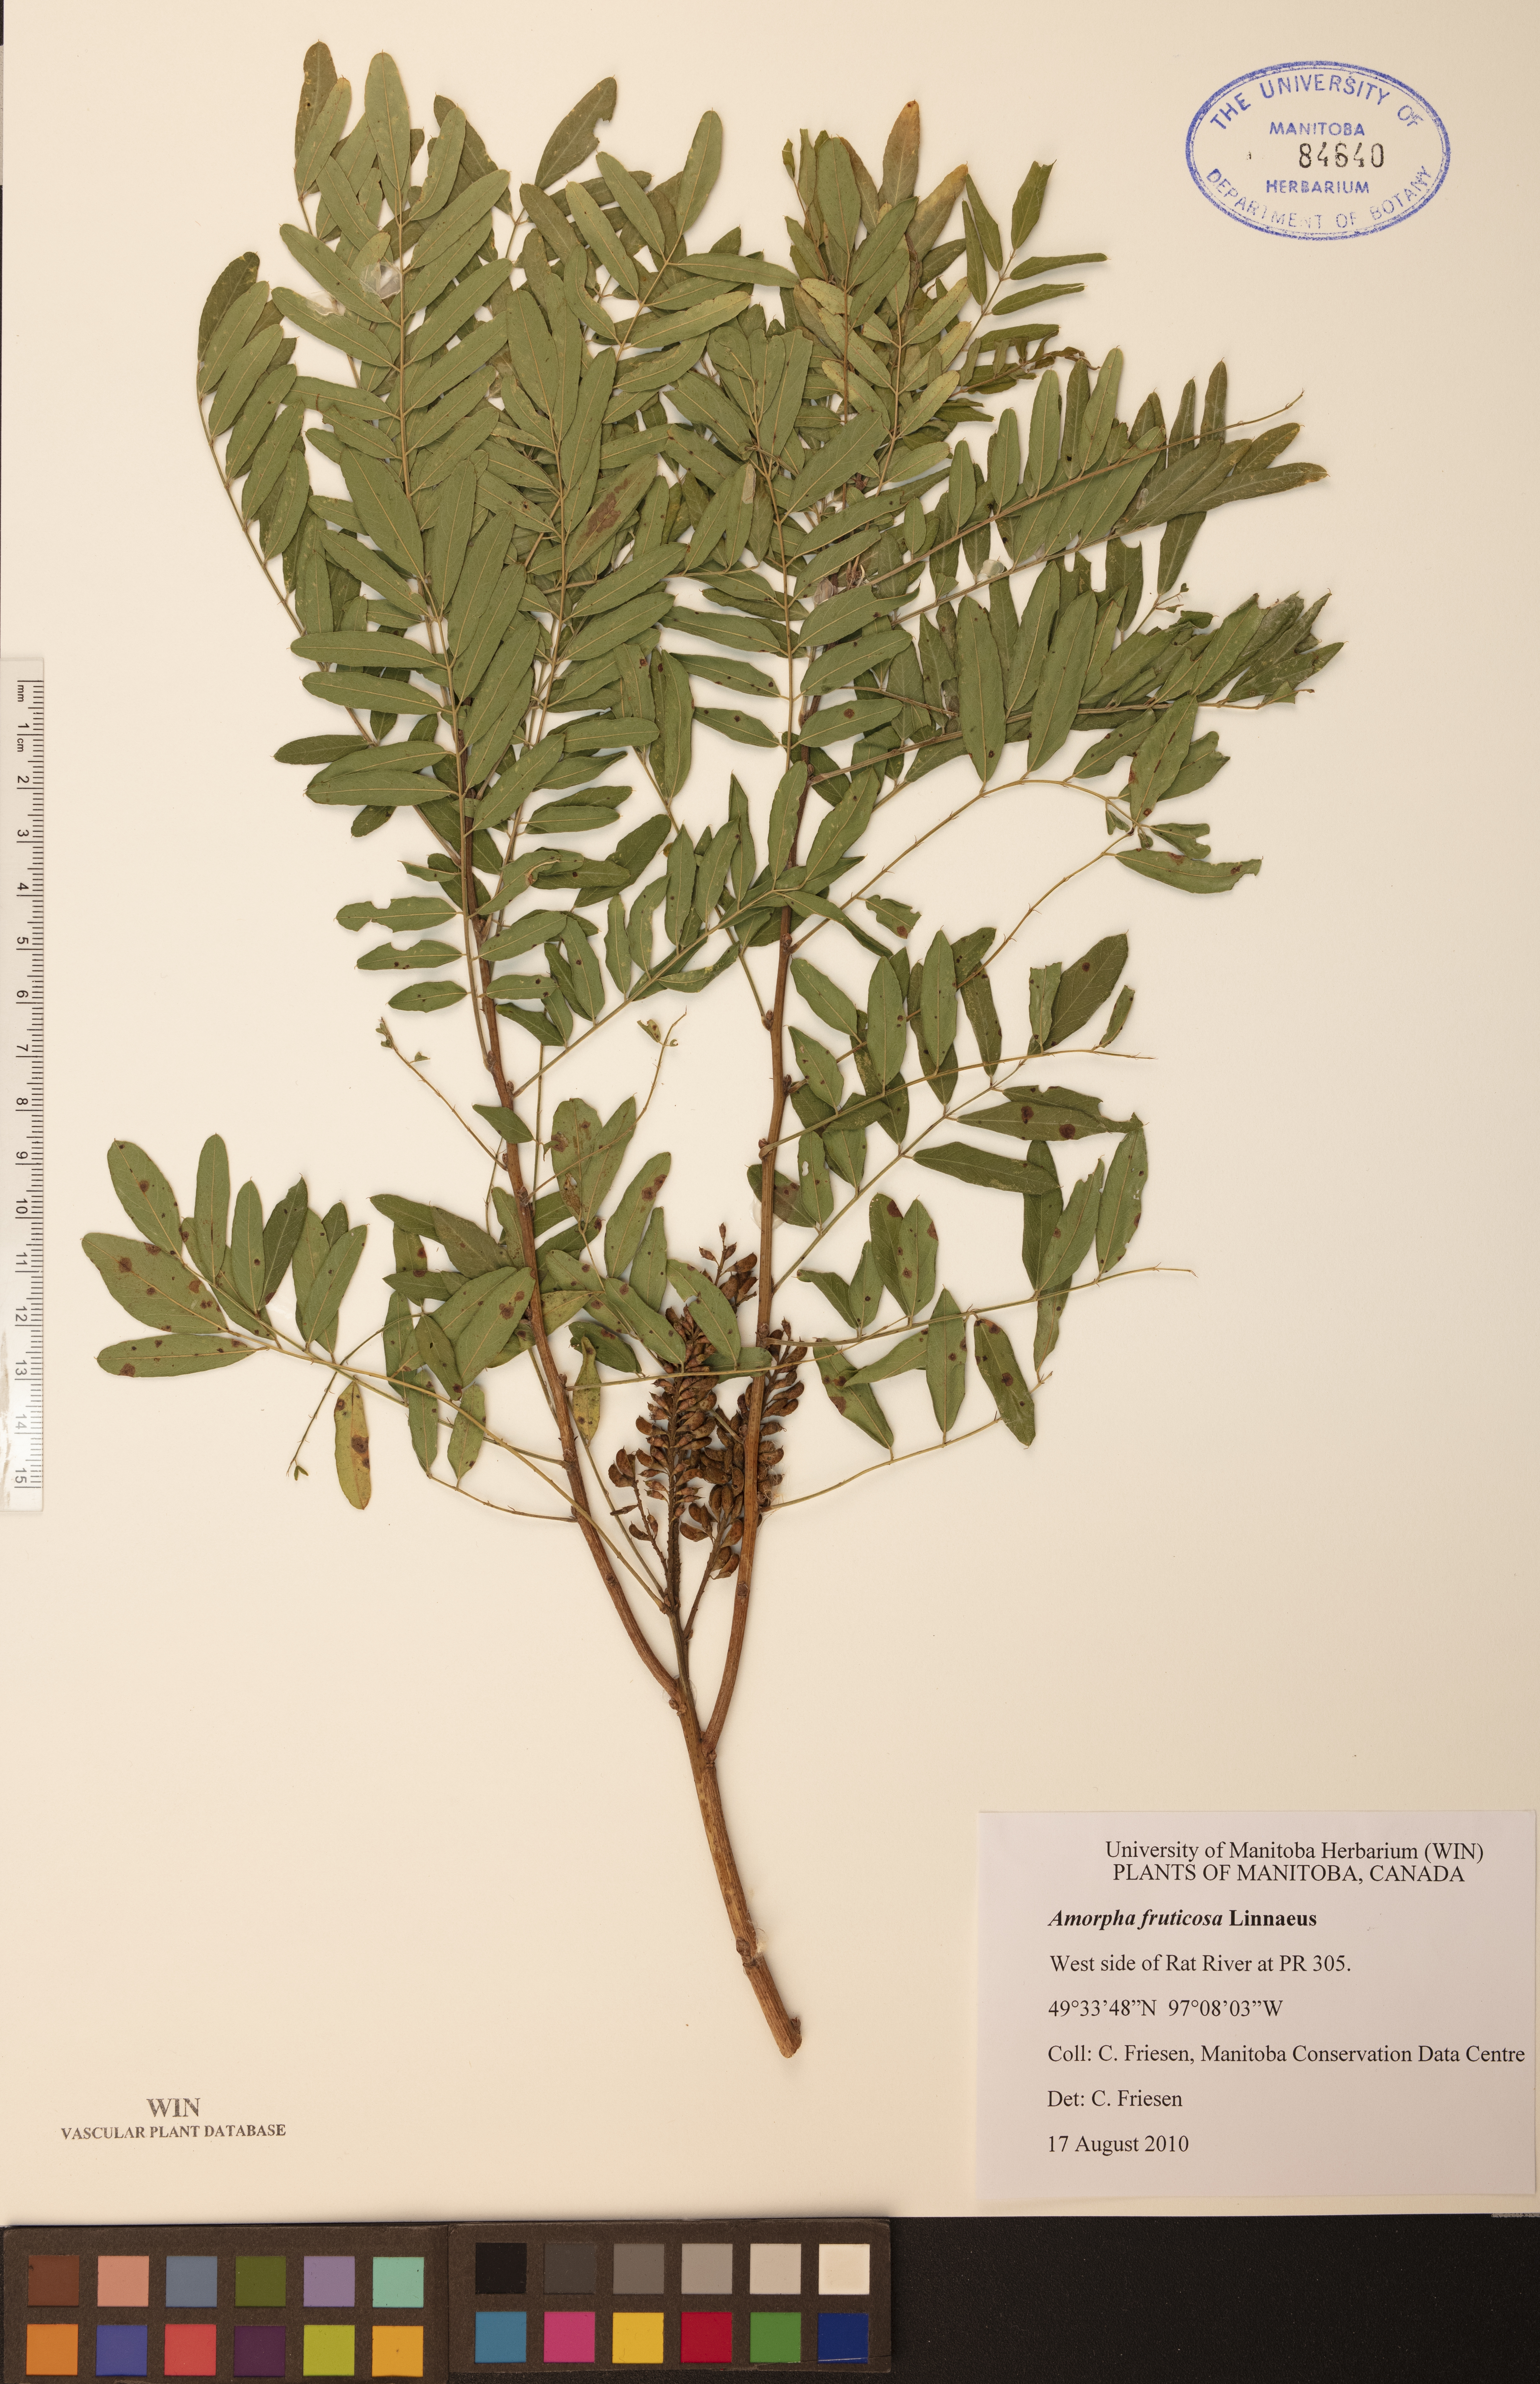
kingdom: Plantae
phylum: Tracheophyta
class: Magnoliopsida
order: Fabales
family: Fabaceae
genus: Amorpha
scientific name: Amorpha fruticosa
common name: False indigo
